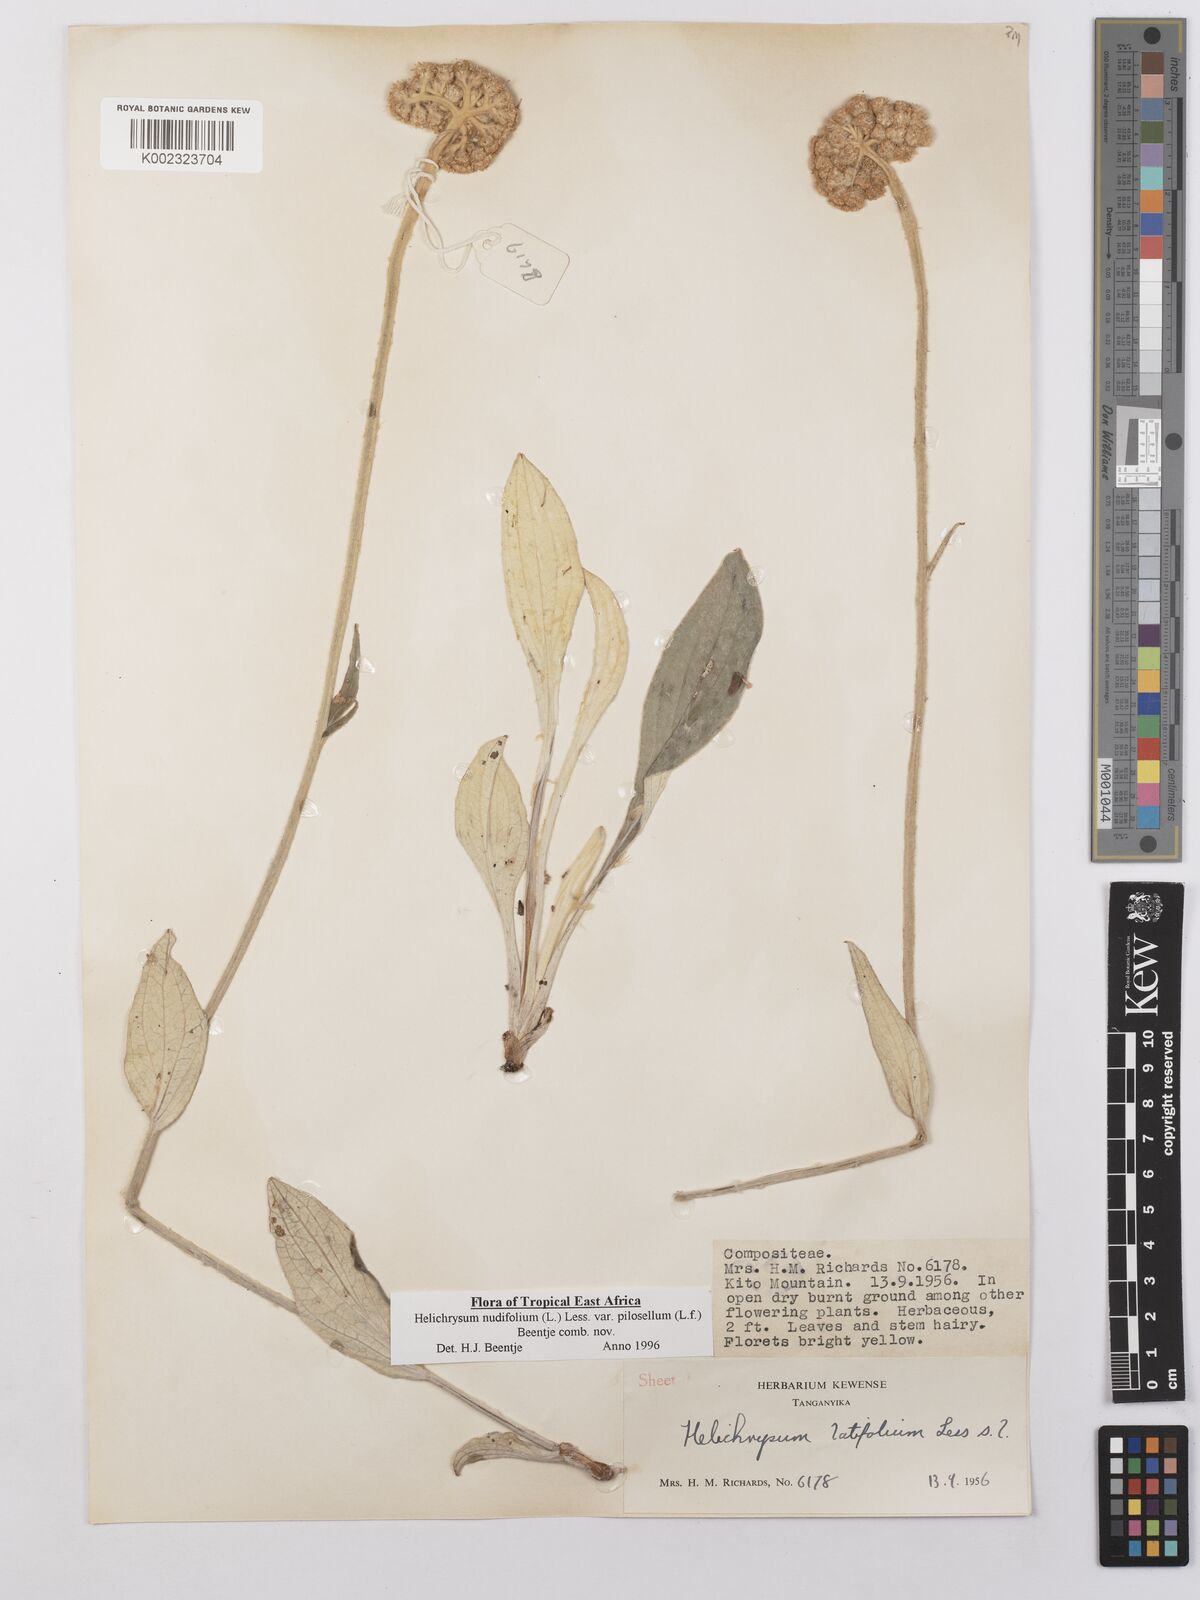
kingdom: Plantae
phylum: Tracheophyta
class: Magnoliopsida
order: Asterales
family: Asteraceae
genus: Helichrysum
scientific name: Helichrysum nudifolium
